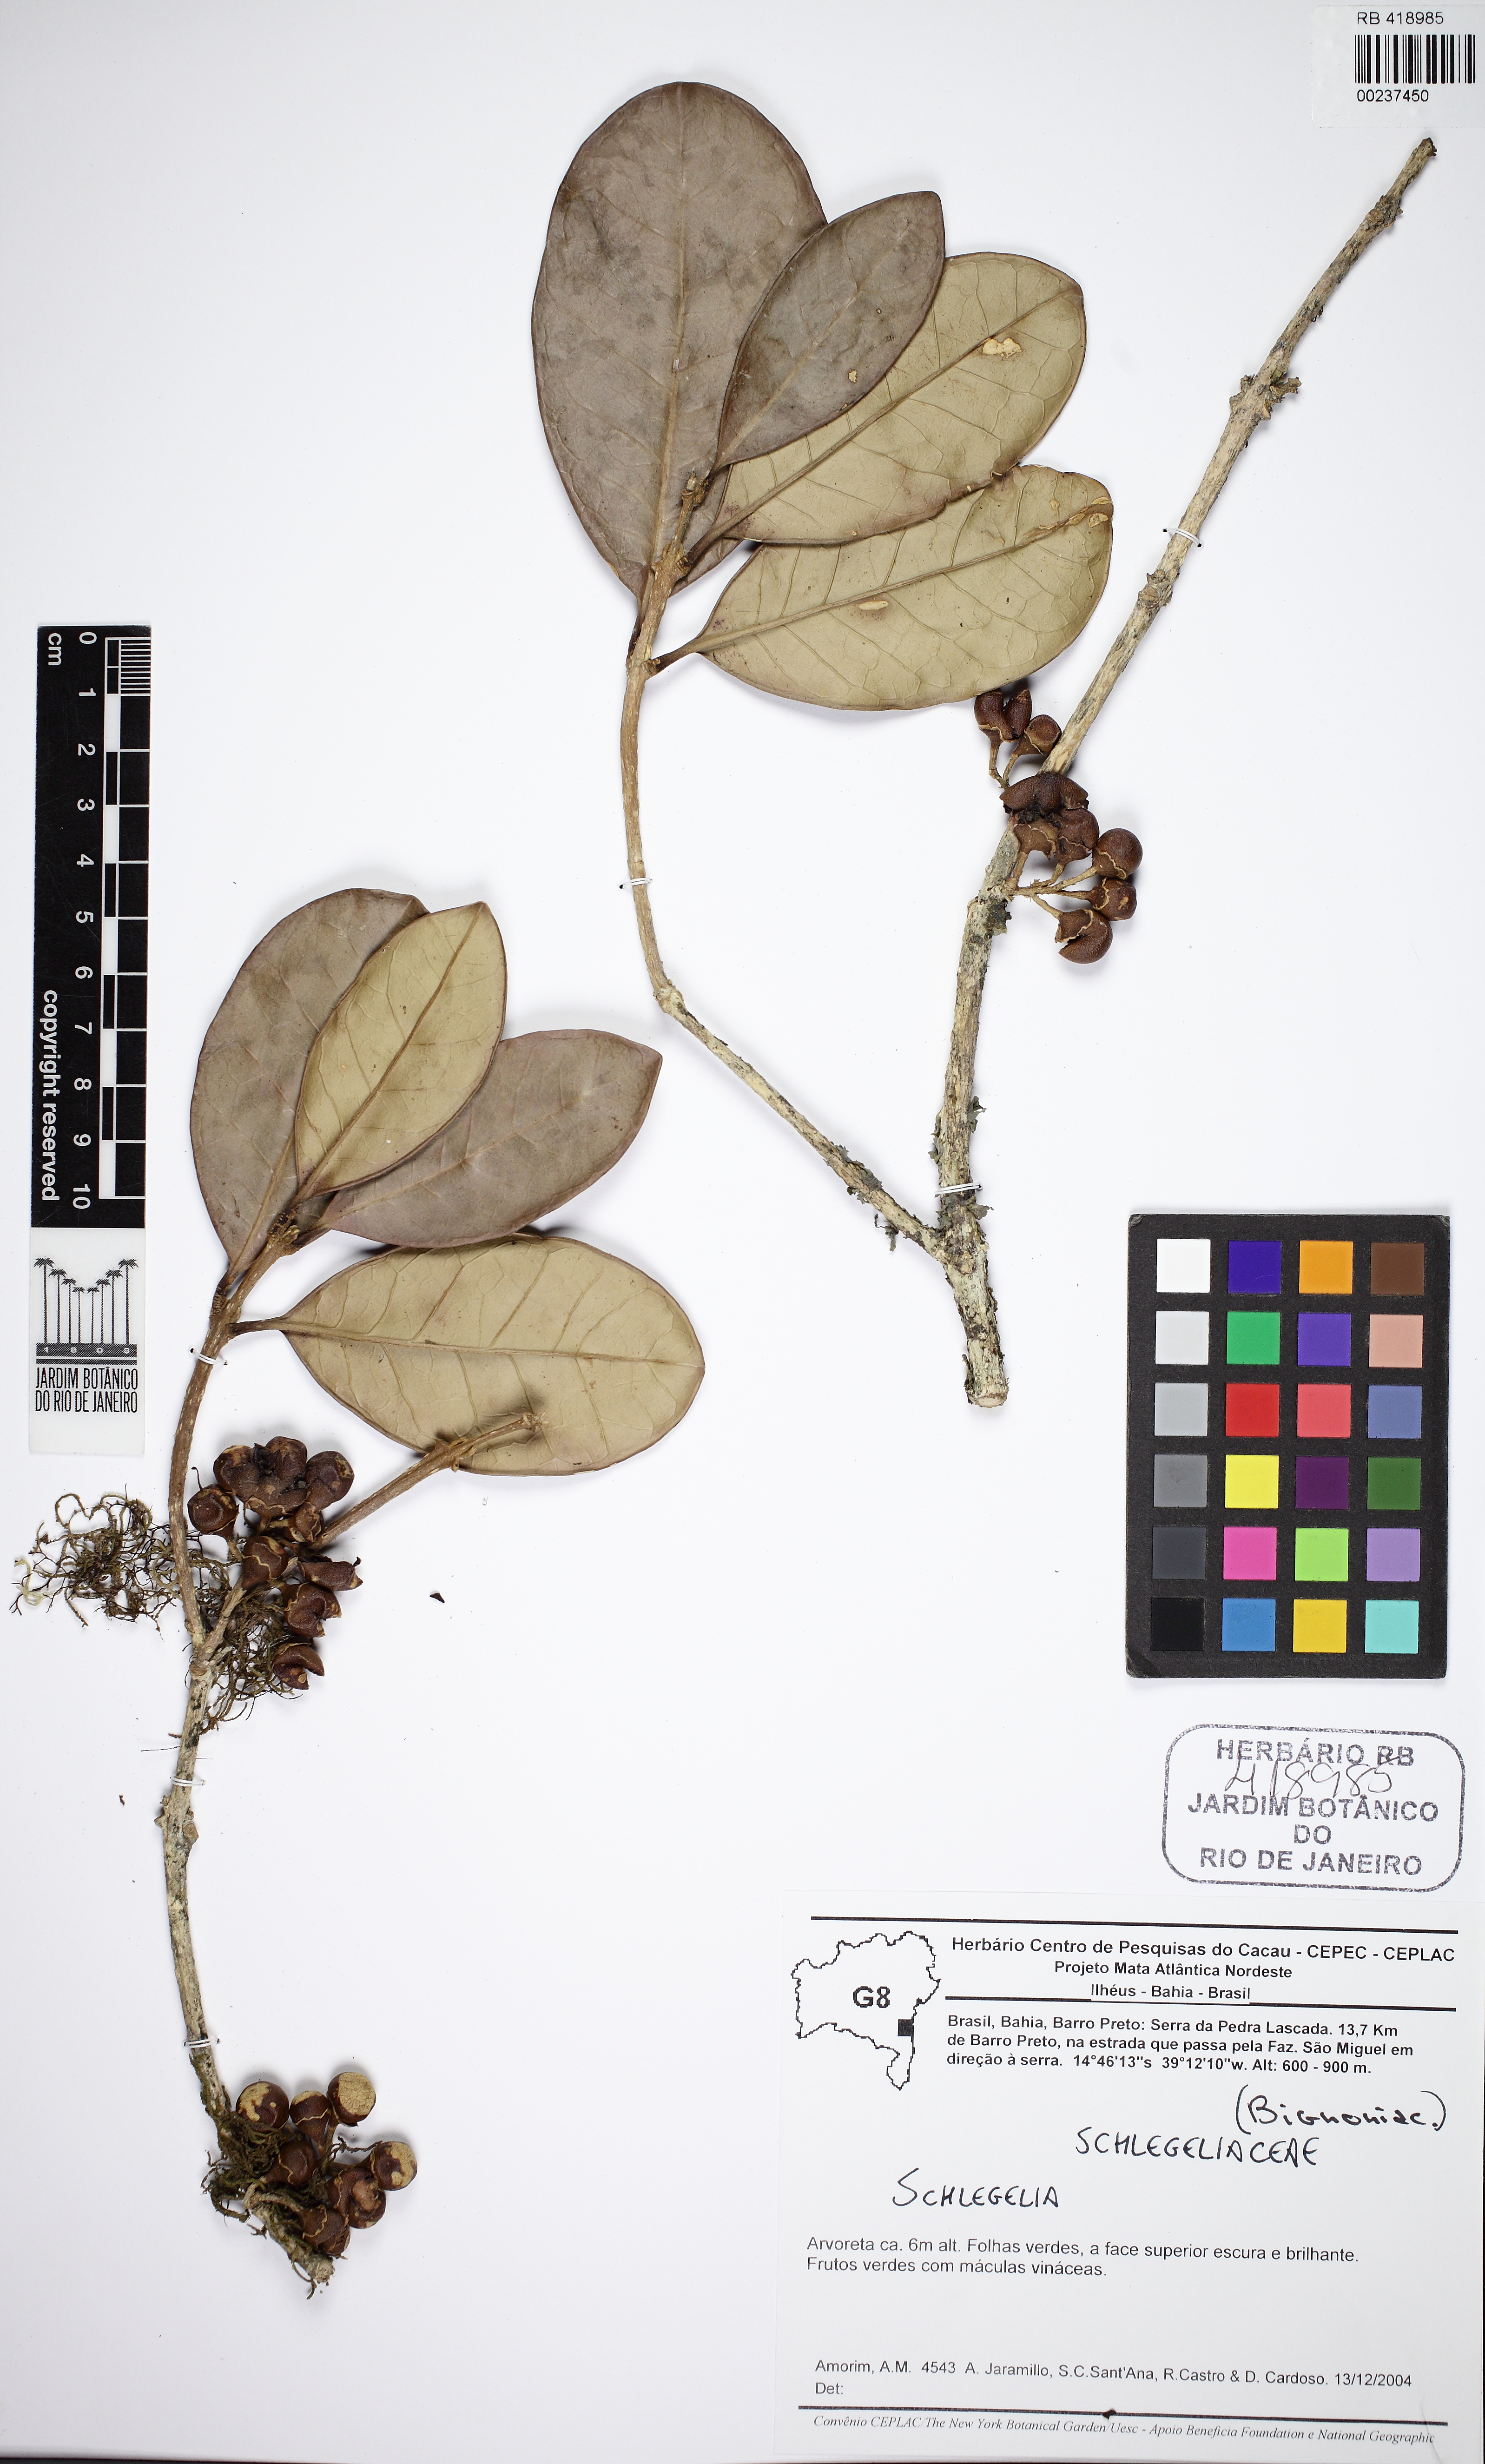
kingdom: Plantae
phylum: Tracheophyta
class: Magnoliopsida
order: Lamiales
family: Schlegeliaceae
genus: Schlegelia
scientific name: Schlegelia parviflora
